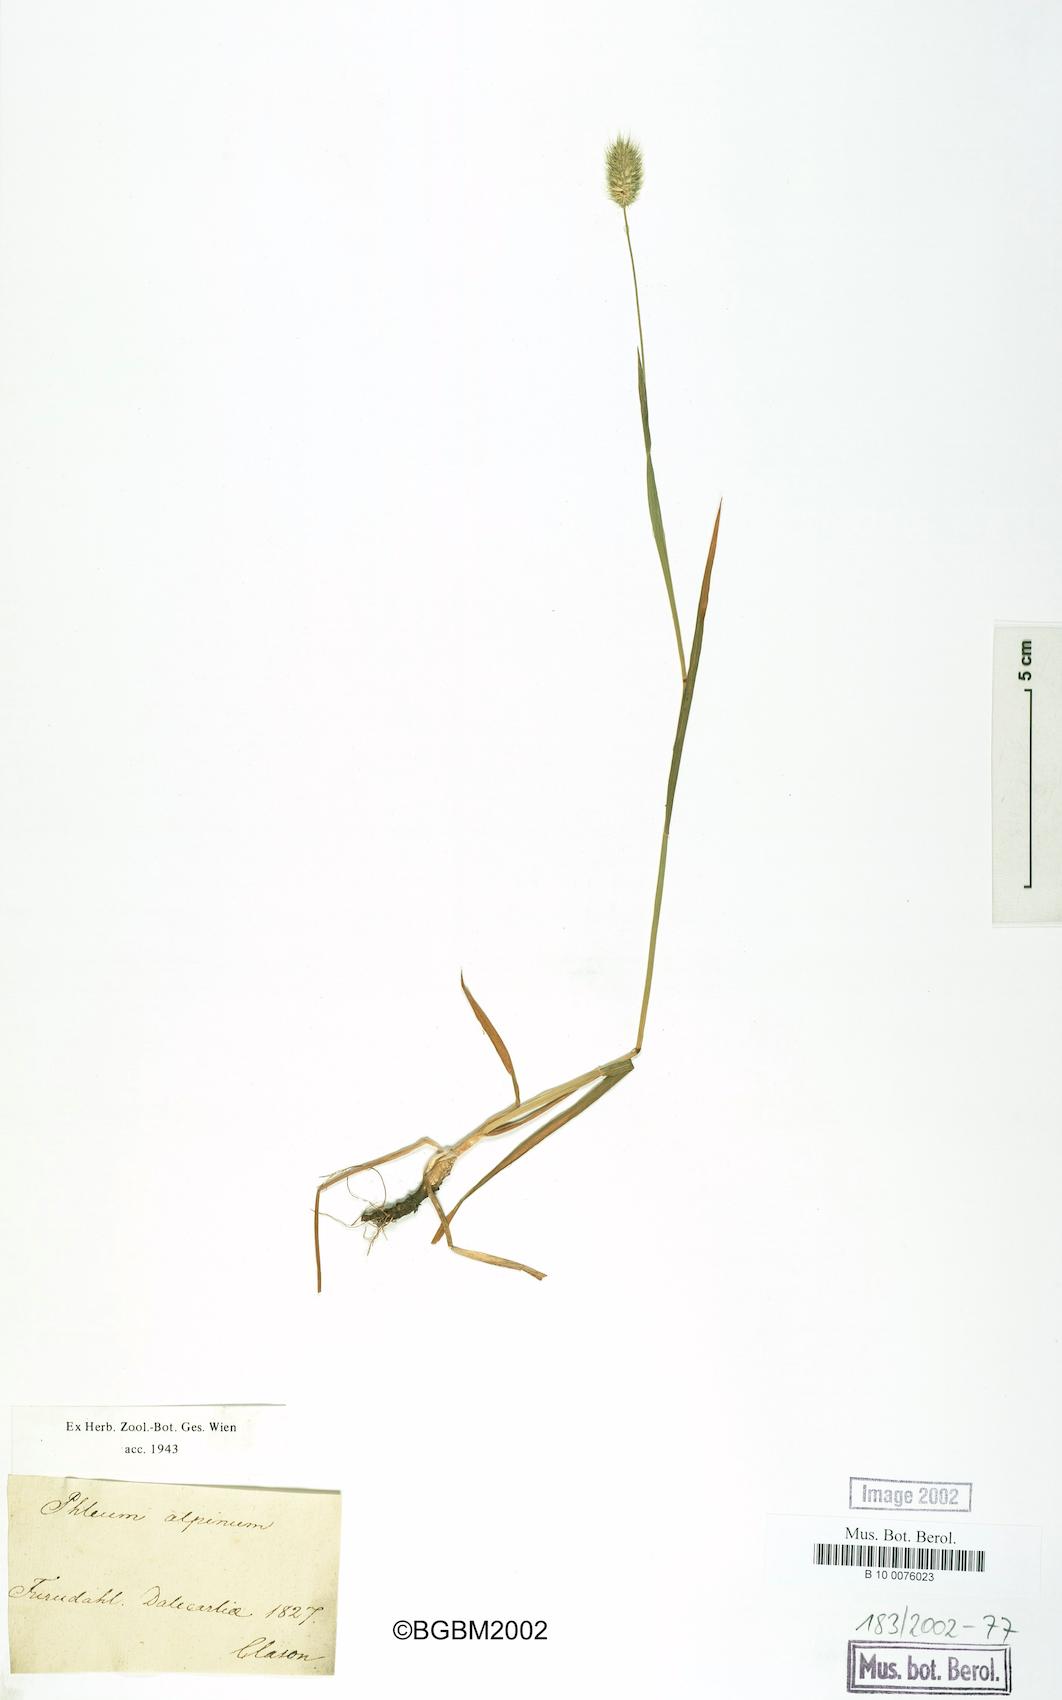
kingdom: Plantae
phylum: Tracheophyta
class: Liliopsida
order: Poales
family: Poaceae
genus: Phleum
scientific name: Phleum alpinum
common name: Alpine cat's-tail
